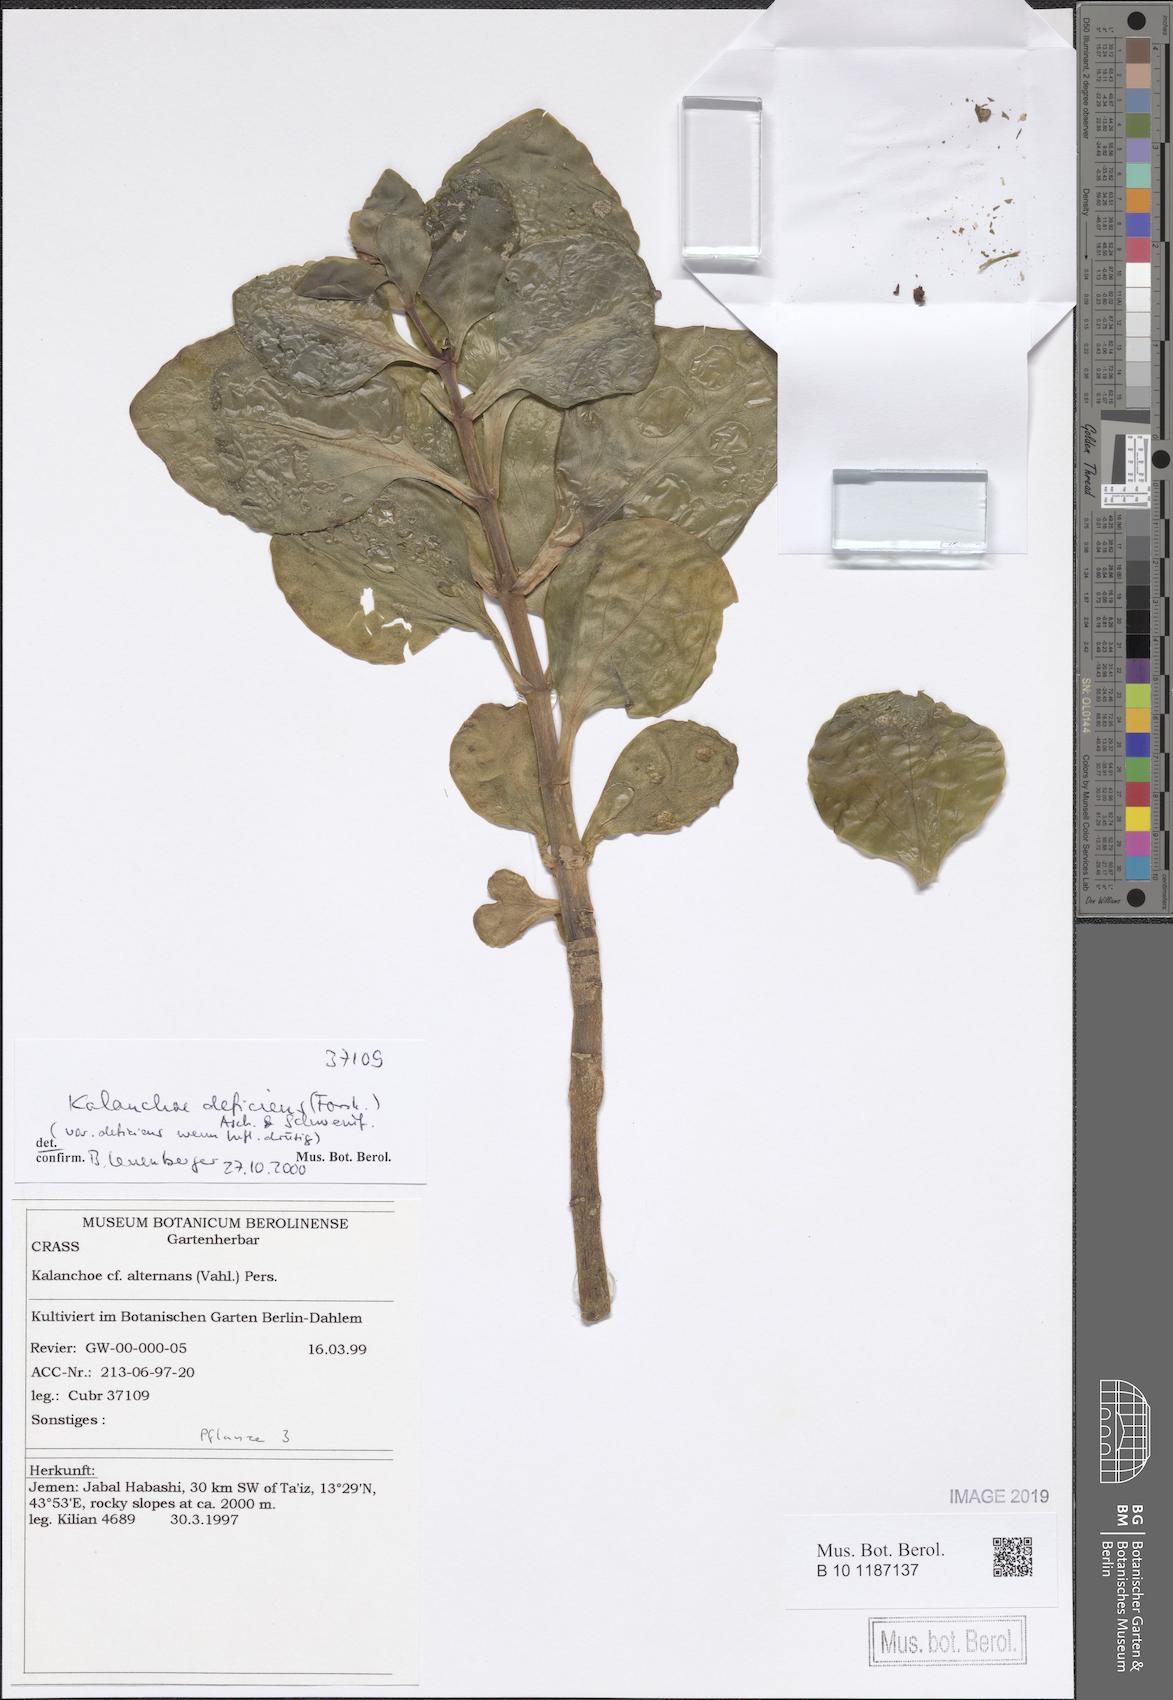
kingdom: Plantae
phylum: Tracheophyta
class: Magnoliopsida
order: Saxifragales
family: Crassulaceae
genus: Kalanchoe
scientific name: Kalanchoe deficiens
